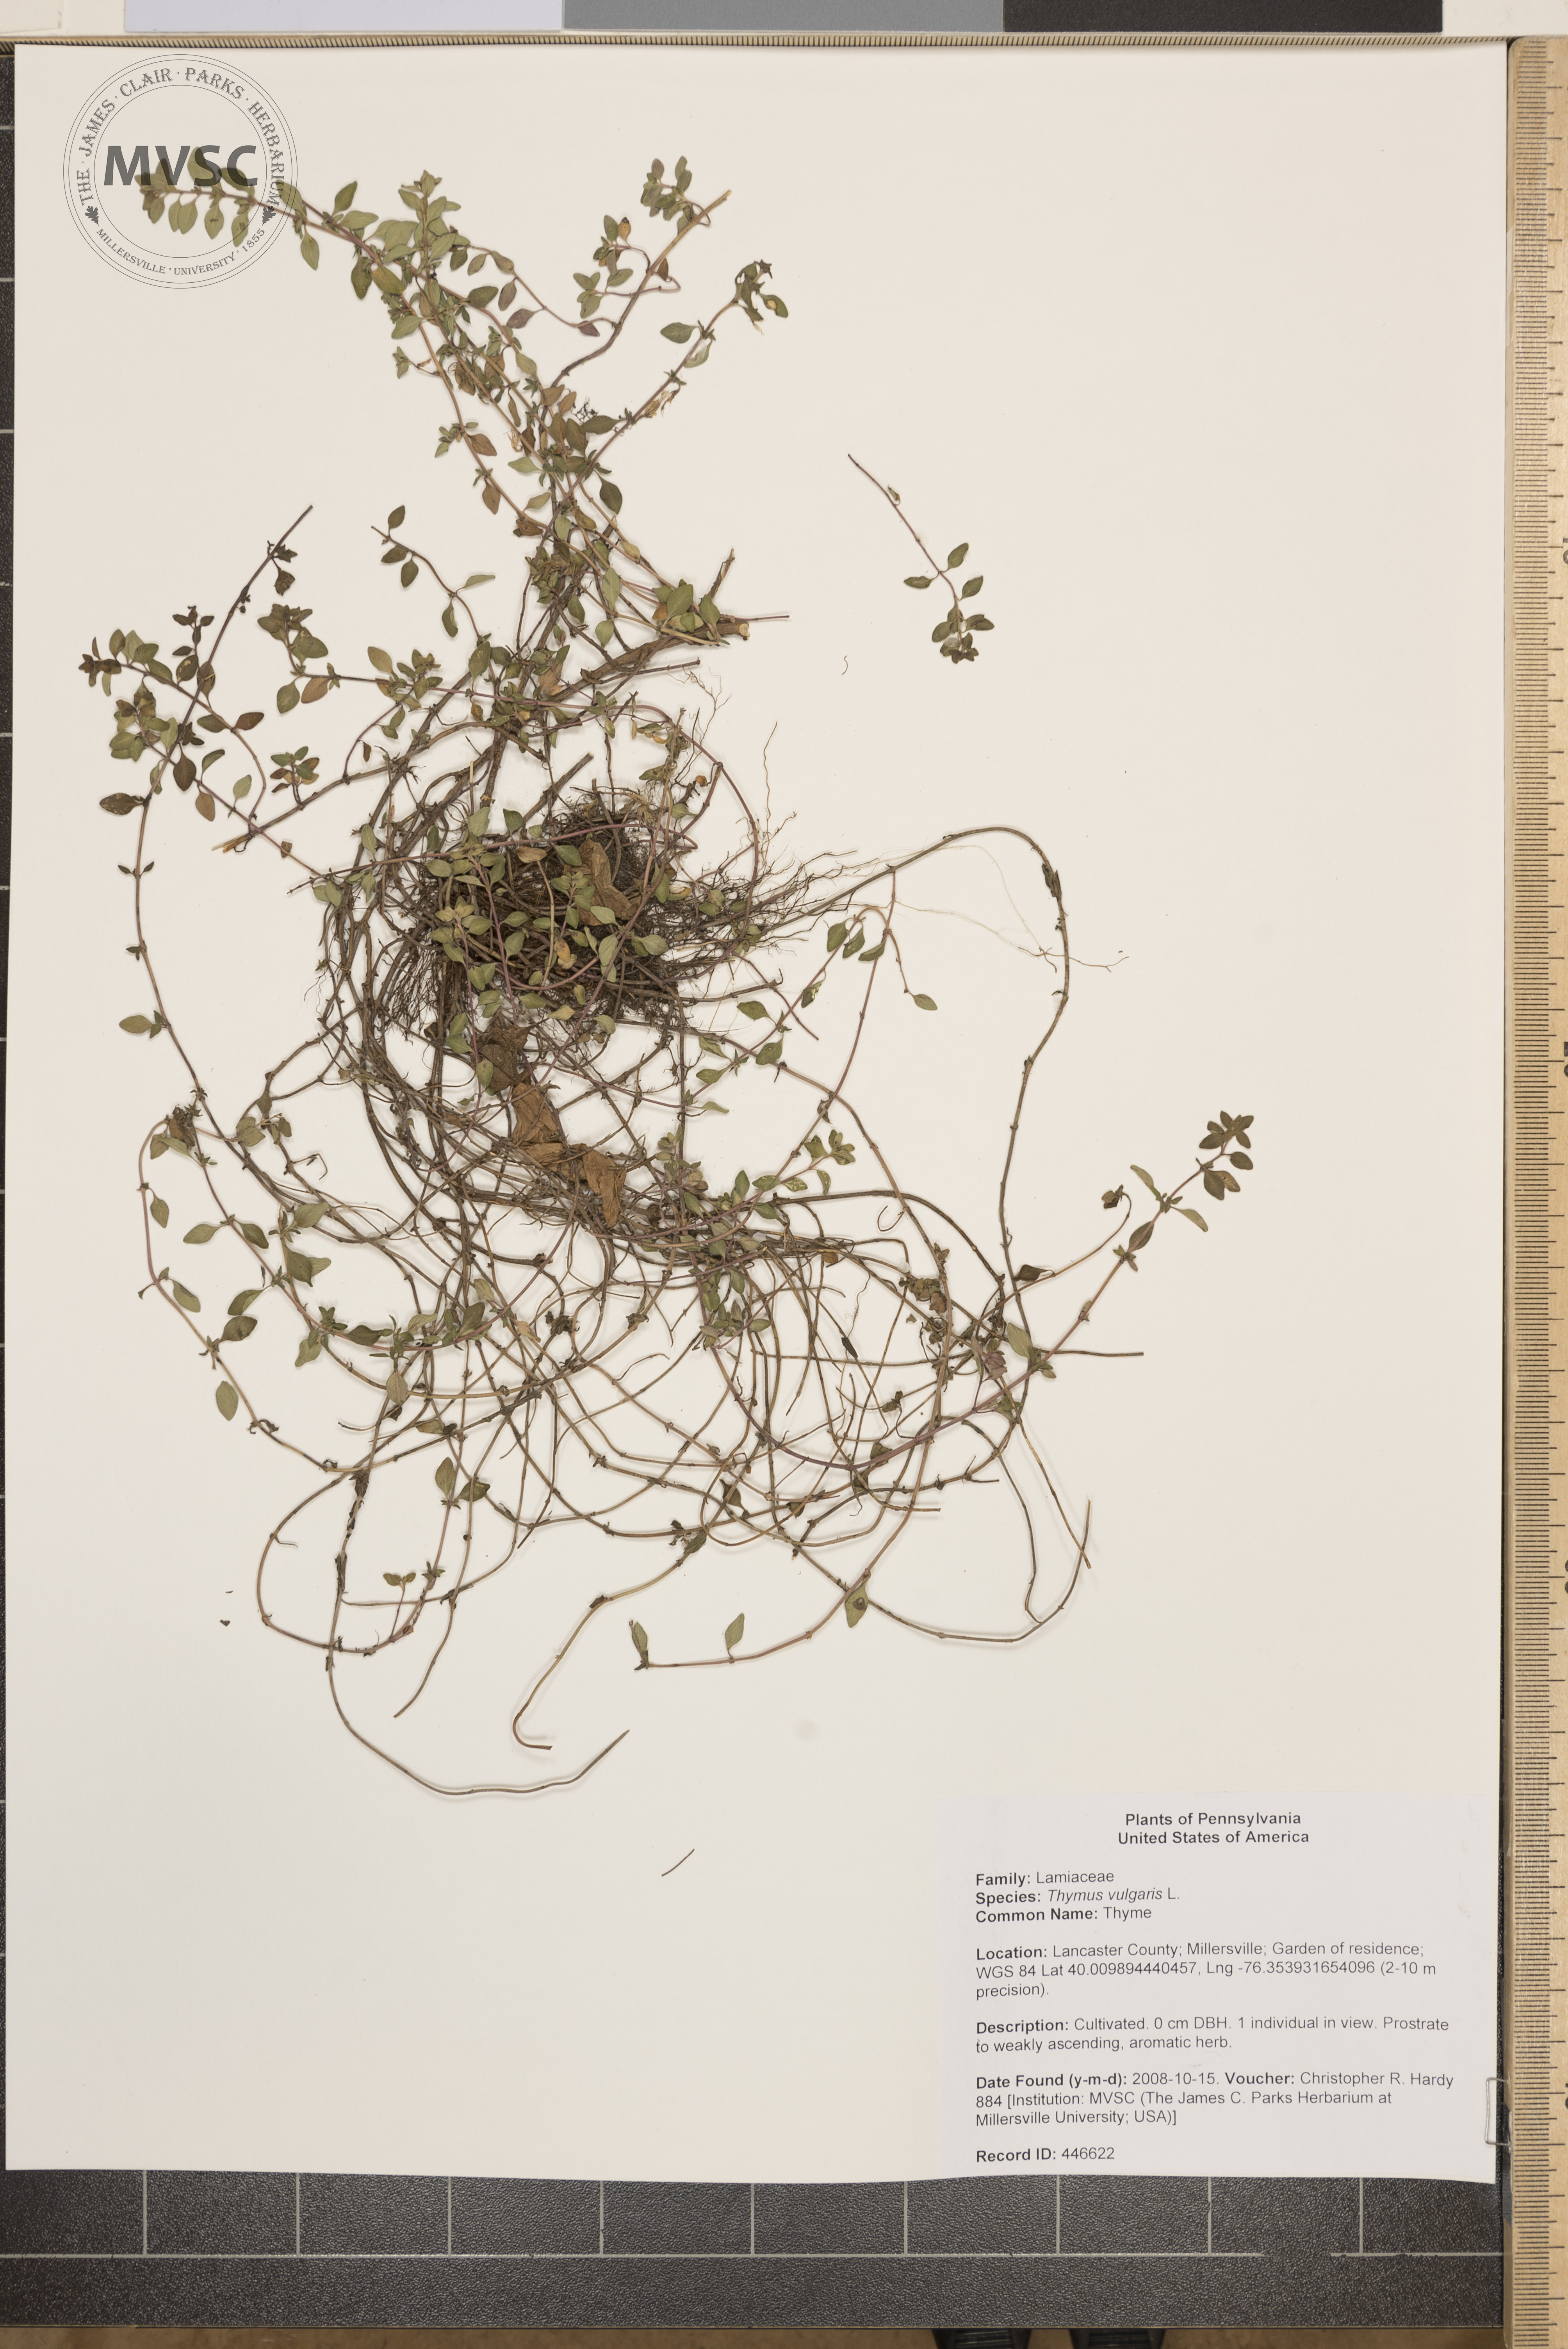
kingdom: Plantae
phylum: Tracheophyta
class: Magnoliopsida
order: Lamiales
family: Lamiaceae
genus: Thymus
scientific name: Thymus vulgaris
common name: Thyme
